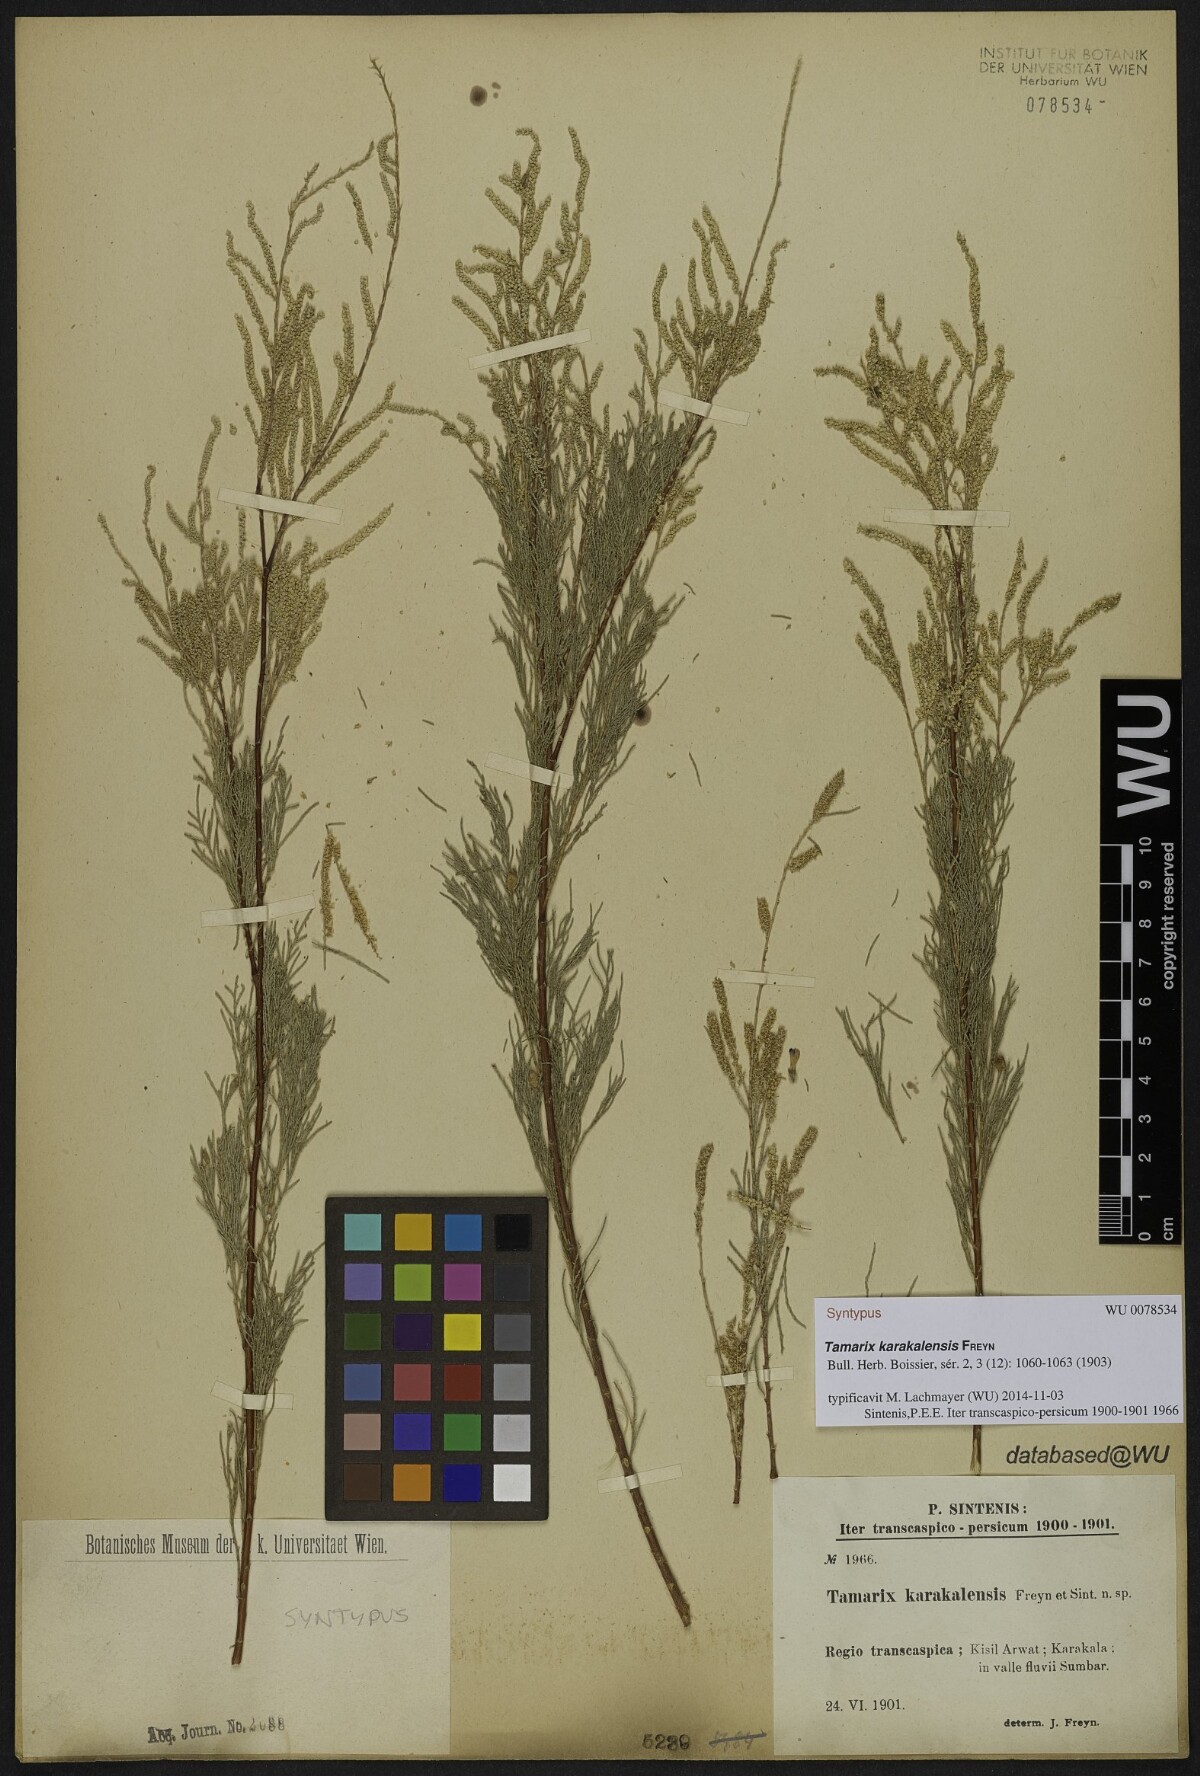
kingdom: Plantae
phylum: Tracheophyta
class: Magnoliopsida
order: Caryophyllales
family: Tamaricaceae
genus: Tamarix
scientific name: Tamarix florida
